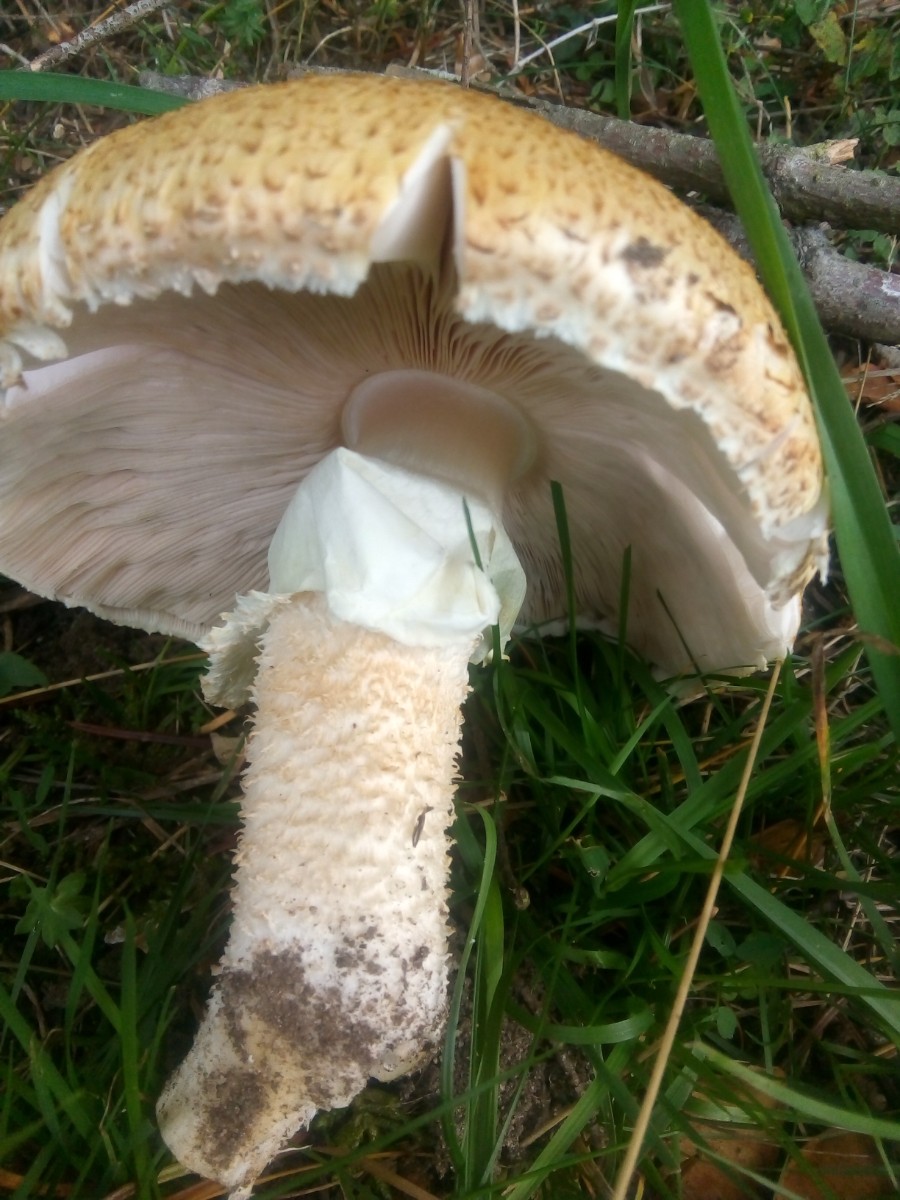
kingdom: Fungi
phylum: Basidiomycota
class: Agaricomycetes
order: Agaricales
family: Agaricaceae
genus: Agaricus
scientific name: Agaricus augustus
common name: prægtig champignon
